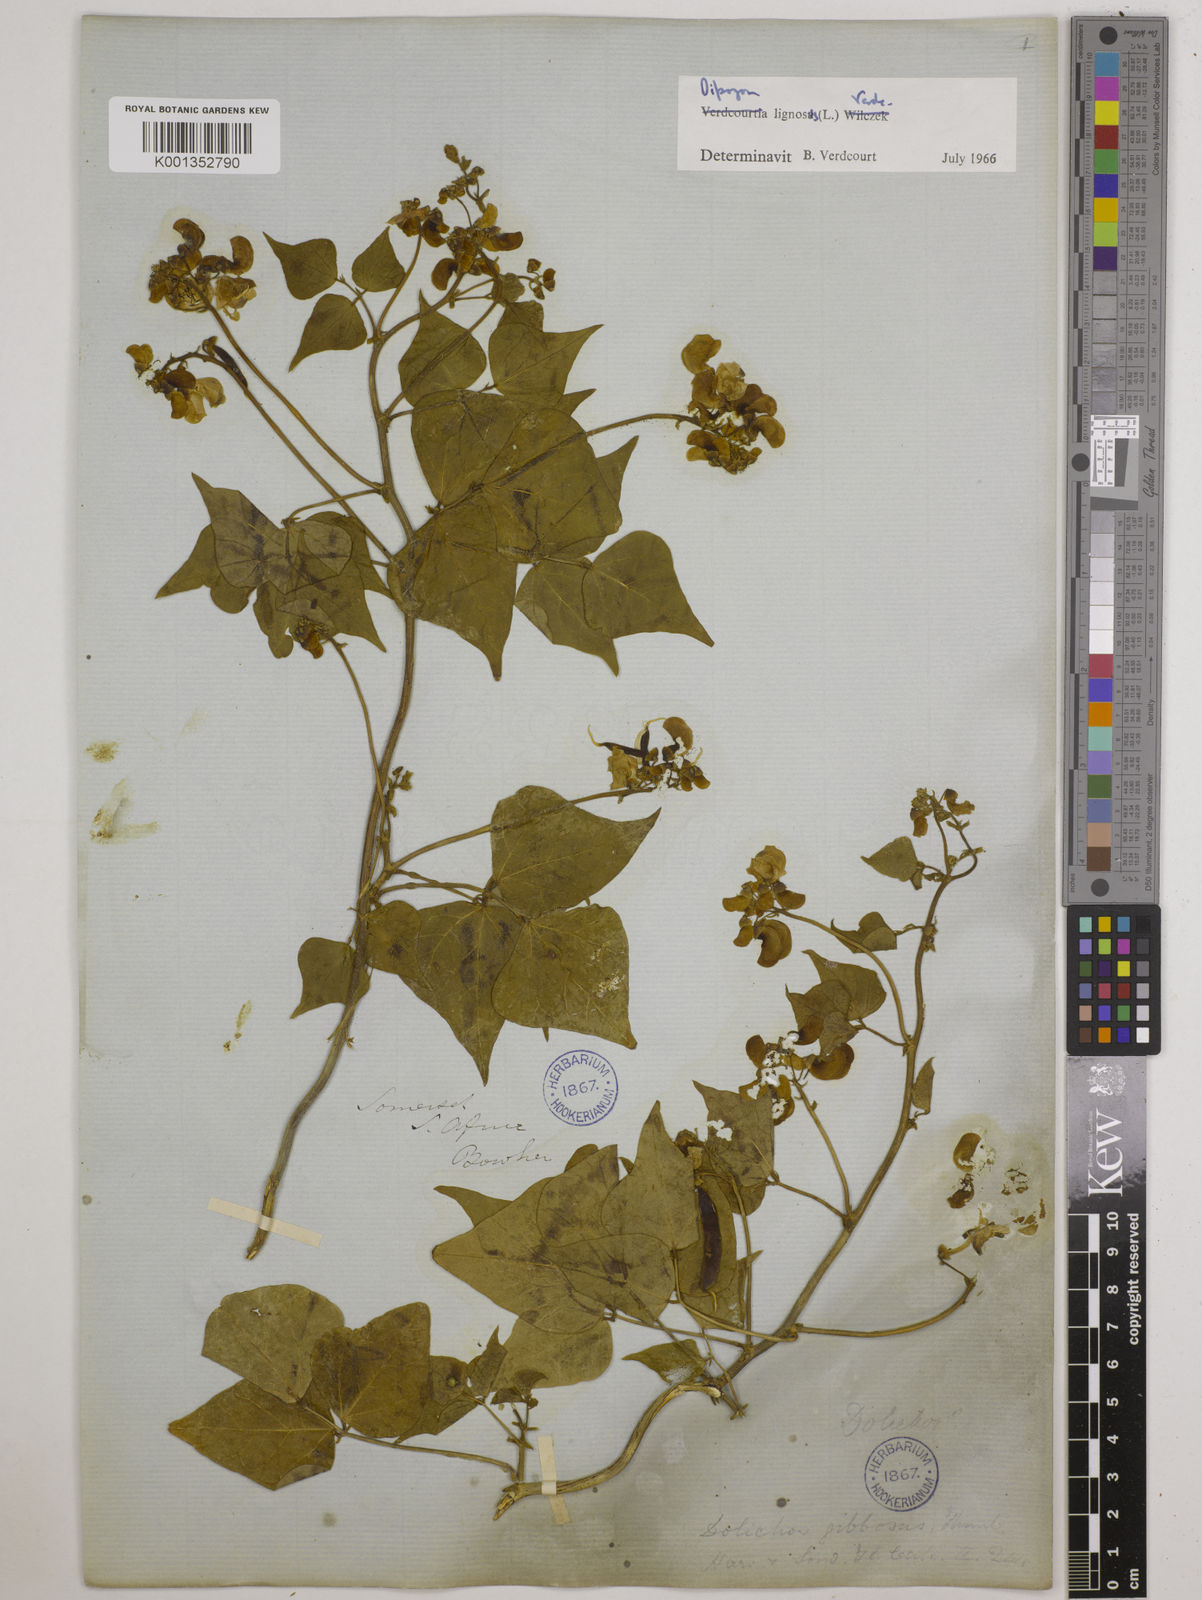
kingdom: Plantae
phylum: Tracheophyta
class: Magnoliopsida
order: Fabales
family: Fabaceae
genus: Dipogon
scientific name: Dipogon lignosus
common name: Okie bean
